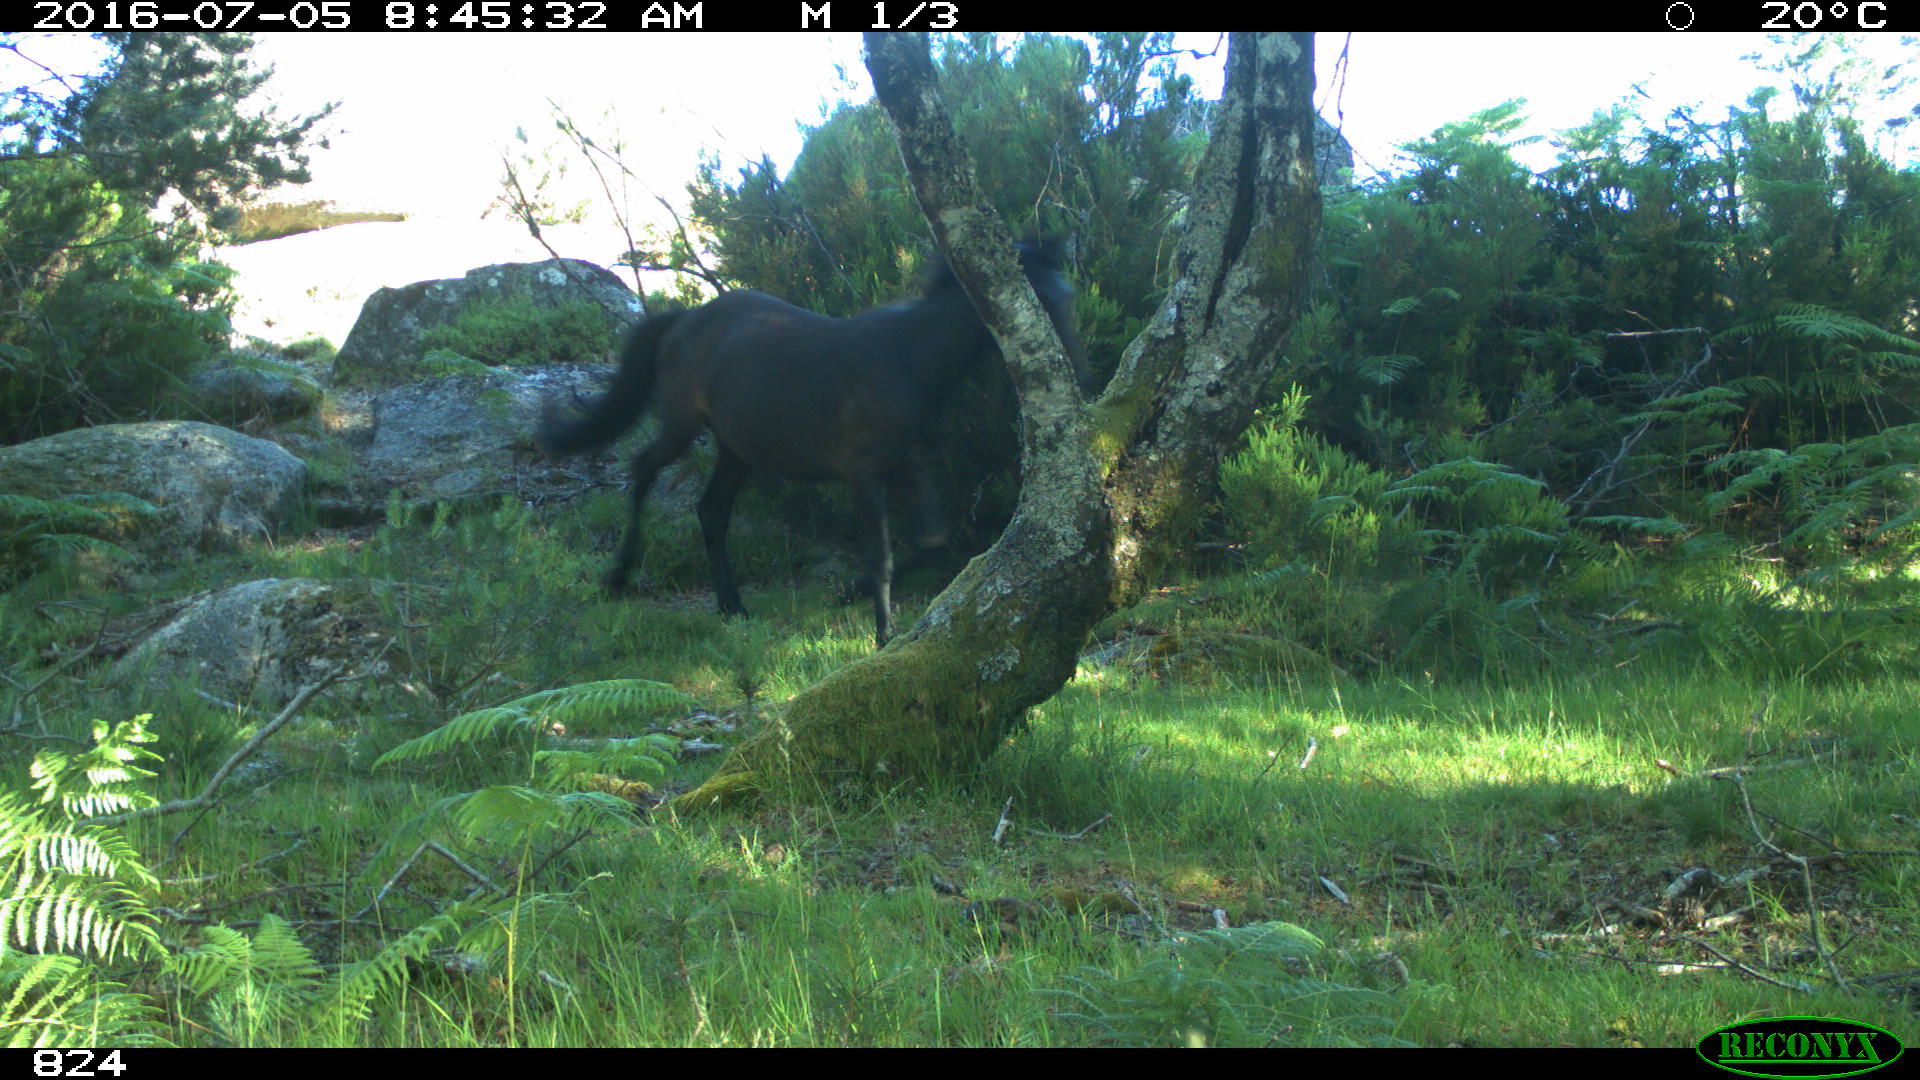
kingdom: Animalia
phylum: Chordata
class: Mammalia
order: Perissodactyla
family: Equidae
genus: Equus
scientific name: Equus caballus
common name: Horse
